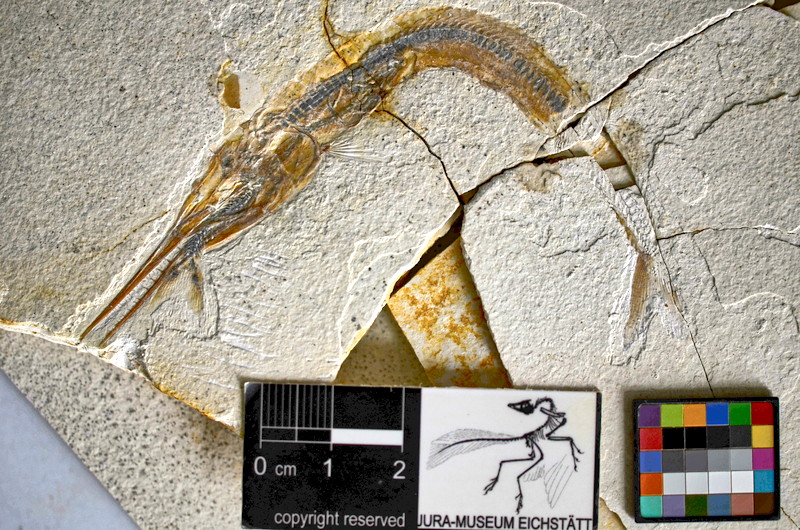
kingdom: Animalia
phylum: Chordata
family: Aspidorhynchidae
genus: Belonostomus
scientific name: Belonostomus kochii
